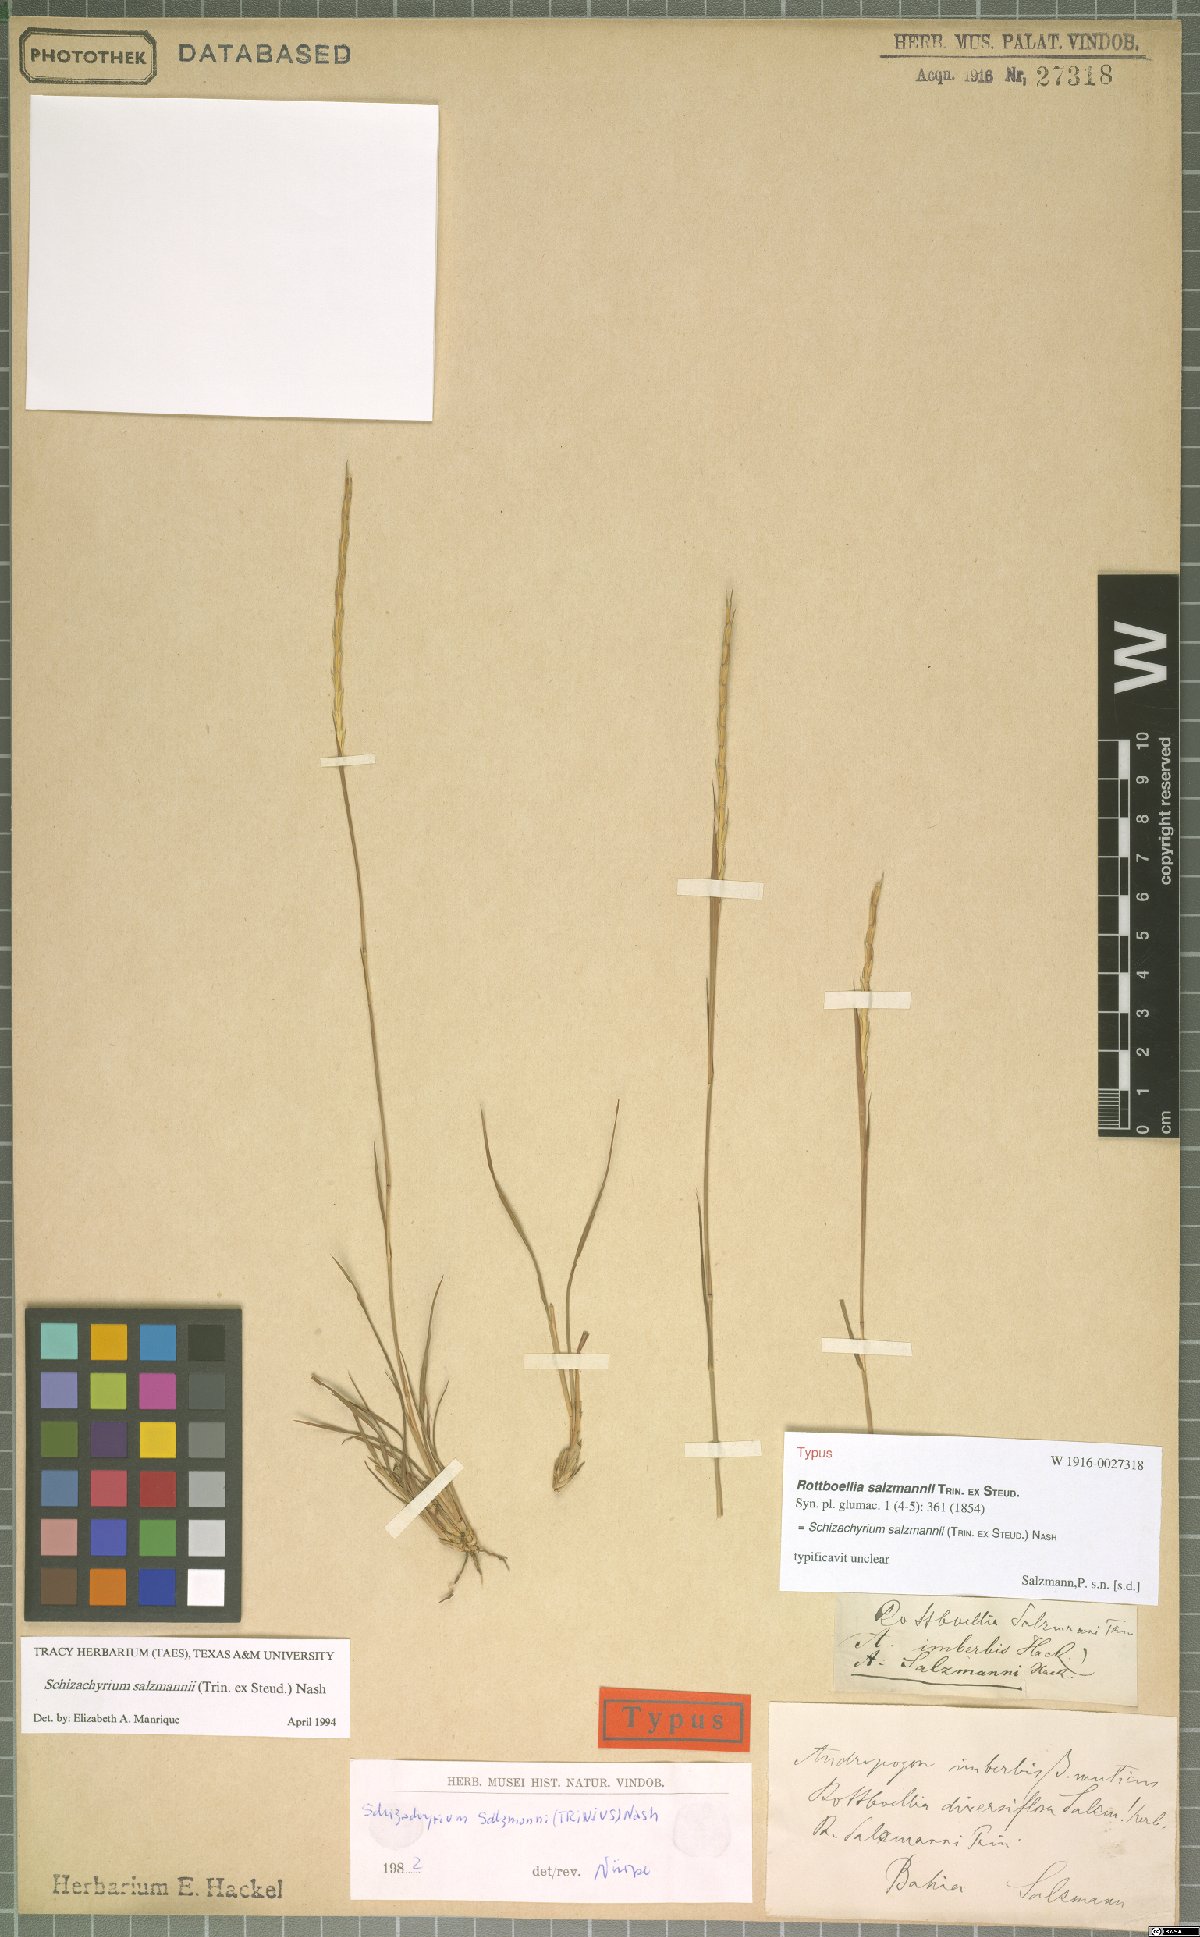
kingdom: Plantae
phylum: Tracheophyta
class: Liliopsida
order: Poales
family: Poaceae
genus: Andropogon
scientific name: Andropogon salzmannii
